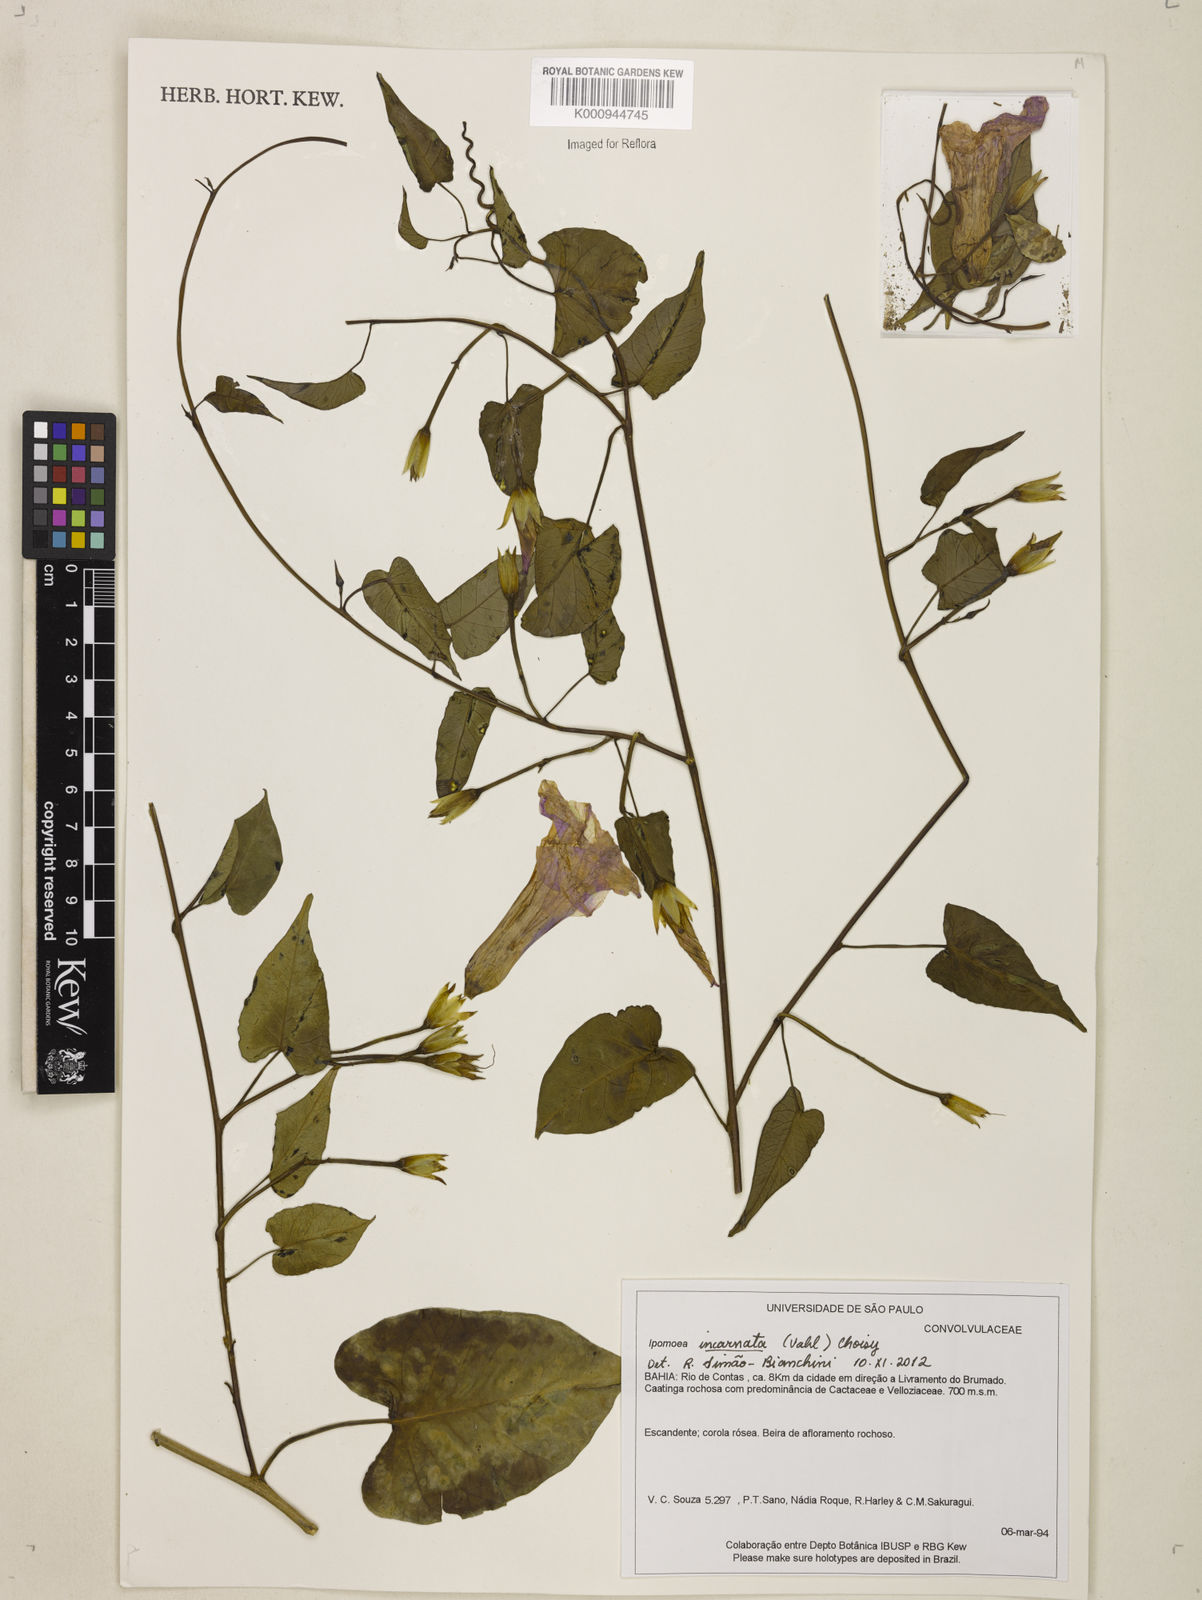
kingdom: Plantae
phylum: Tracheophyta
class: Magnoliopsida
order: Solanales
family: Convolvulaceae
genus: Ipomoea
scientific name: Ipomoea incarnata
